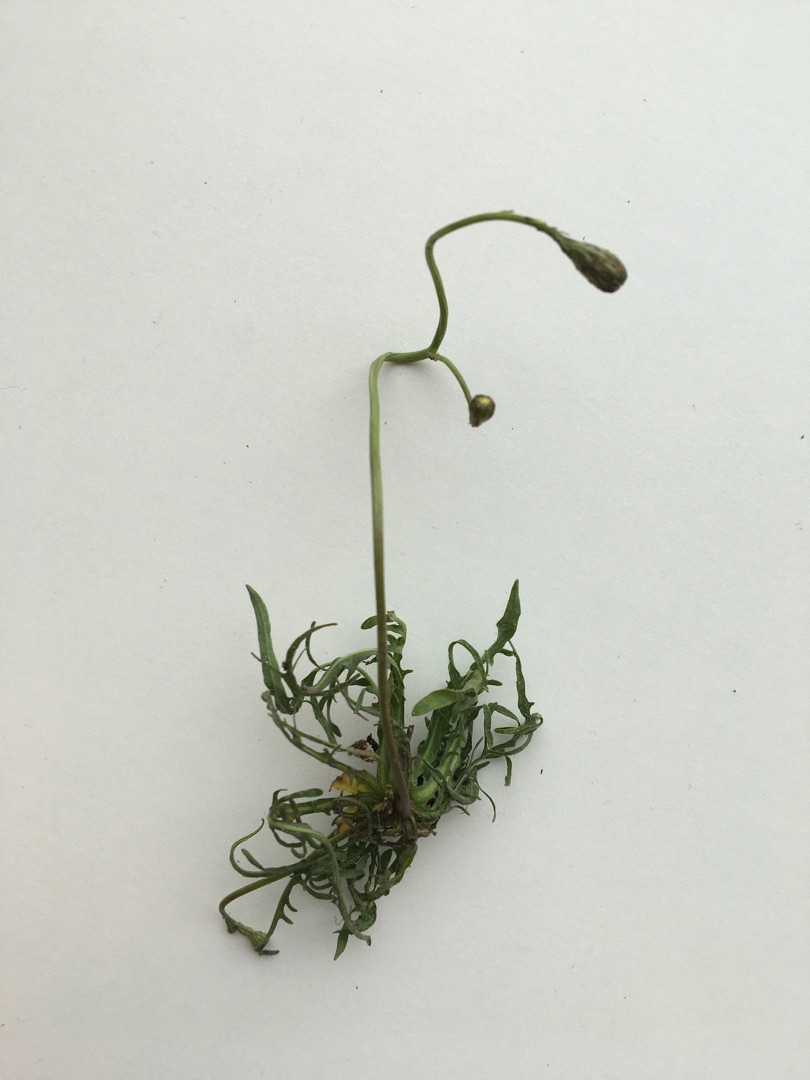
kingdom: Plantae
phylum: Tracheophyta
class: Magnoliopsida
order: Asterales
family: Asteraceae
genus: Scorzoneroides
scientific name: Scorzoneroides autumnalis
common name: Høst-borst
